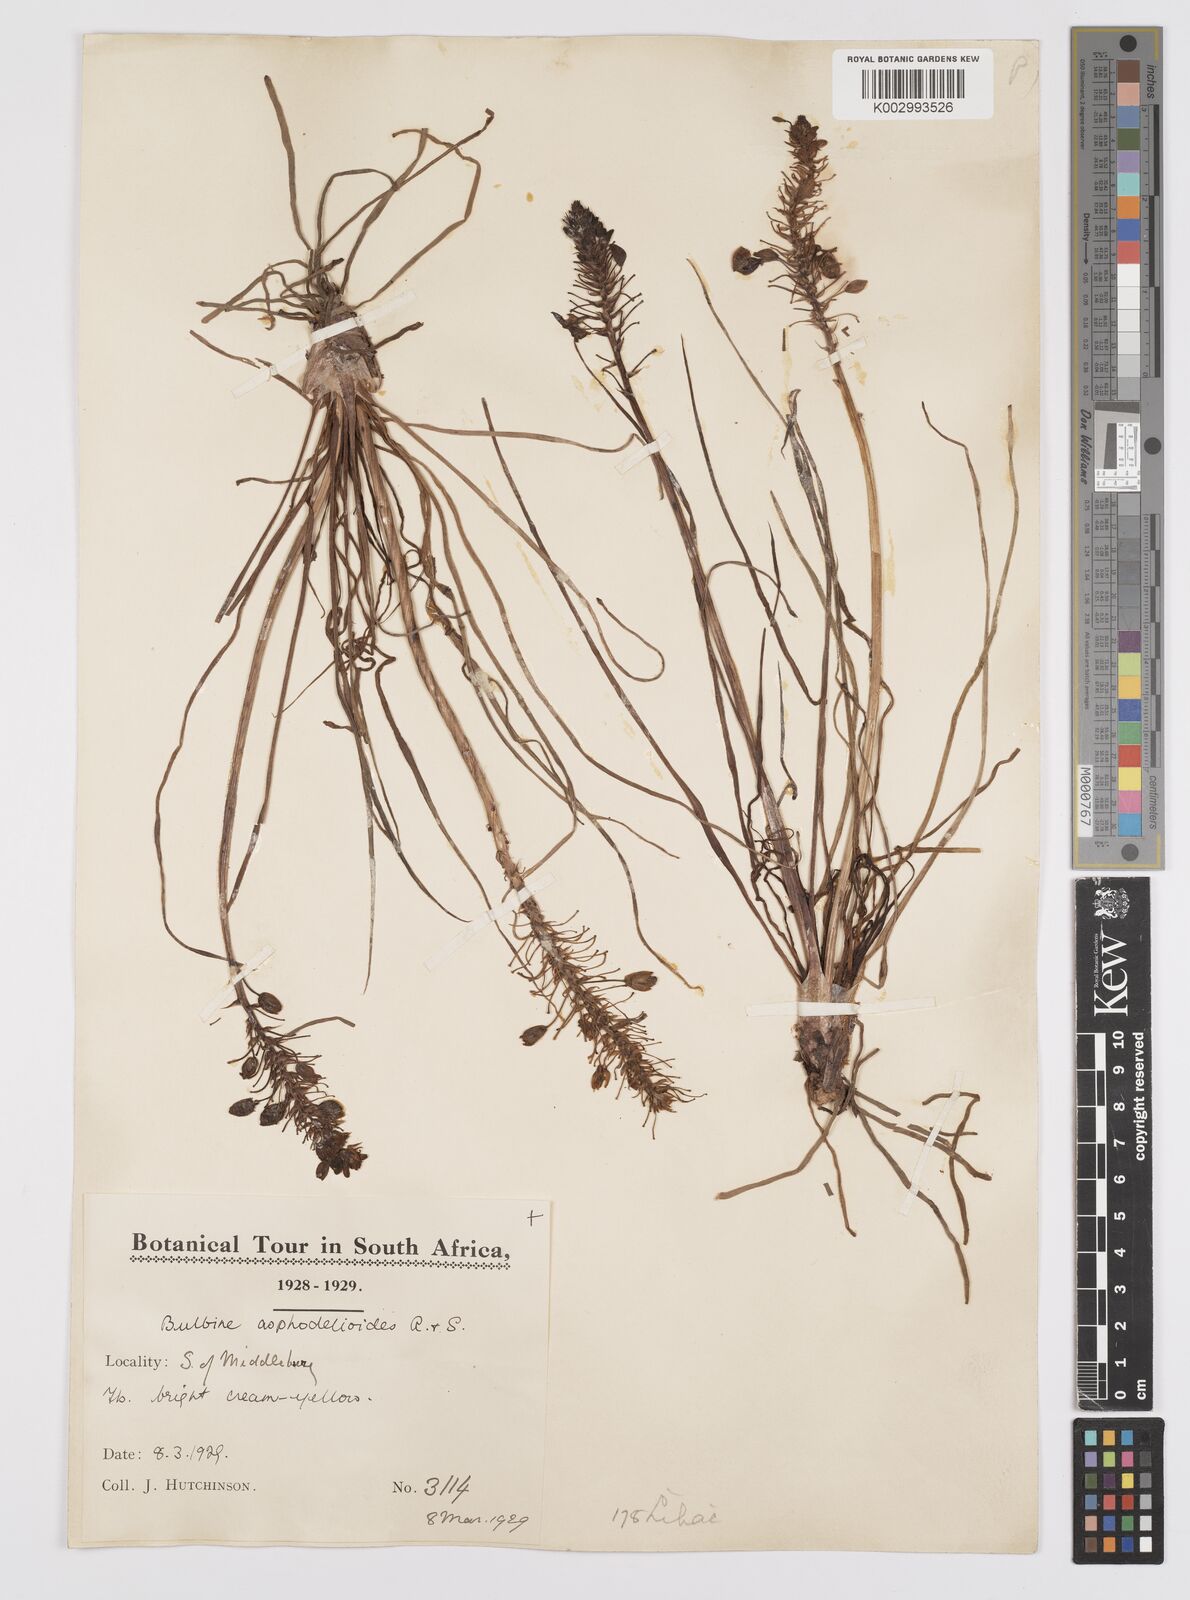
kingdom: Plantae
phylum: Tracheophyta
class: Liliopsida
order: Asparagales
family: Asphodelaceae
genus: Bulbine
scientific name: Bulbine asphodeloides
